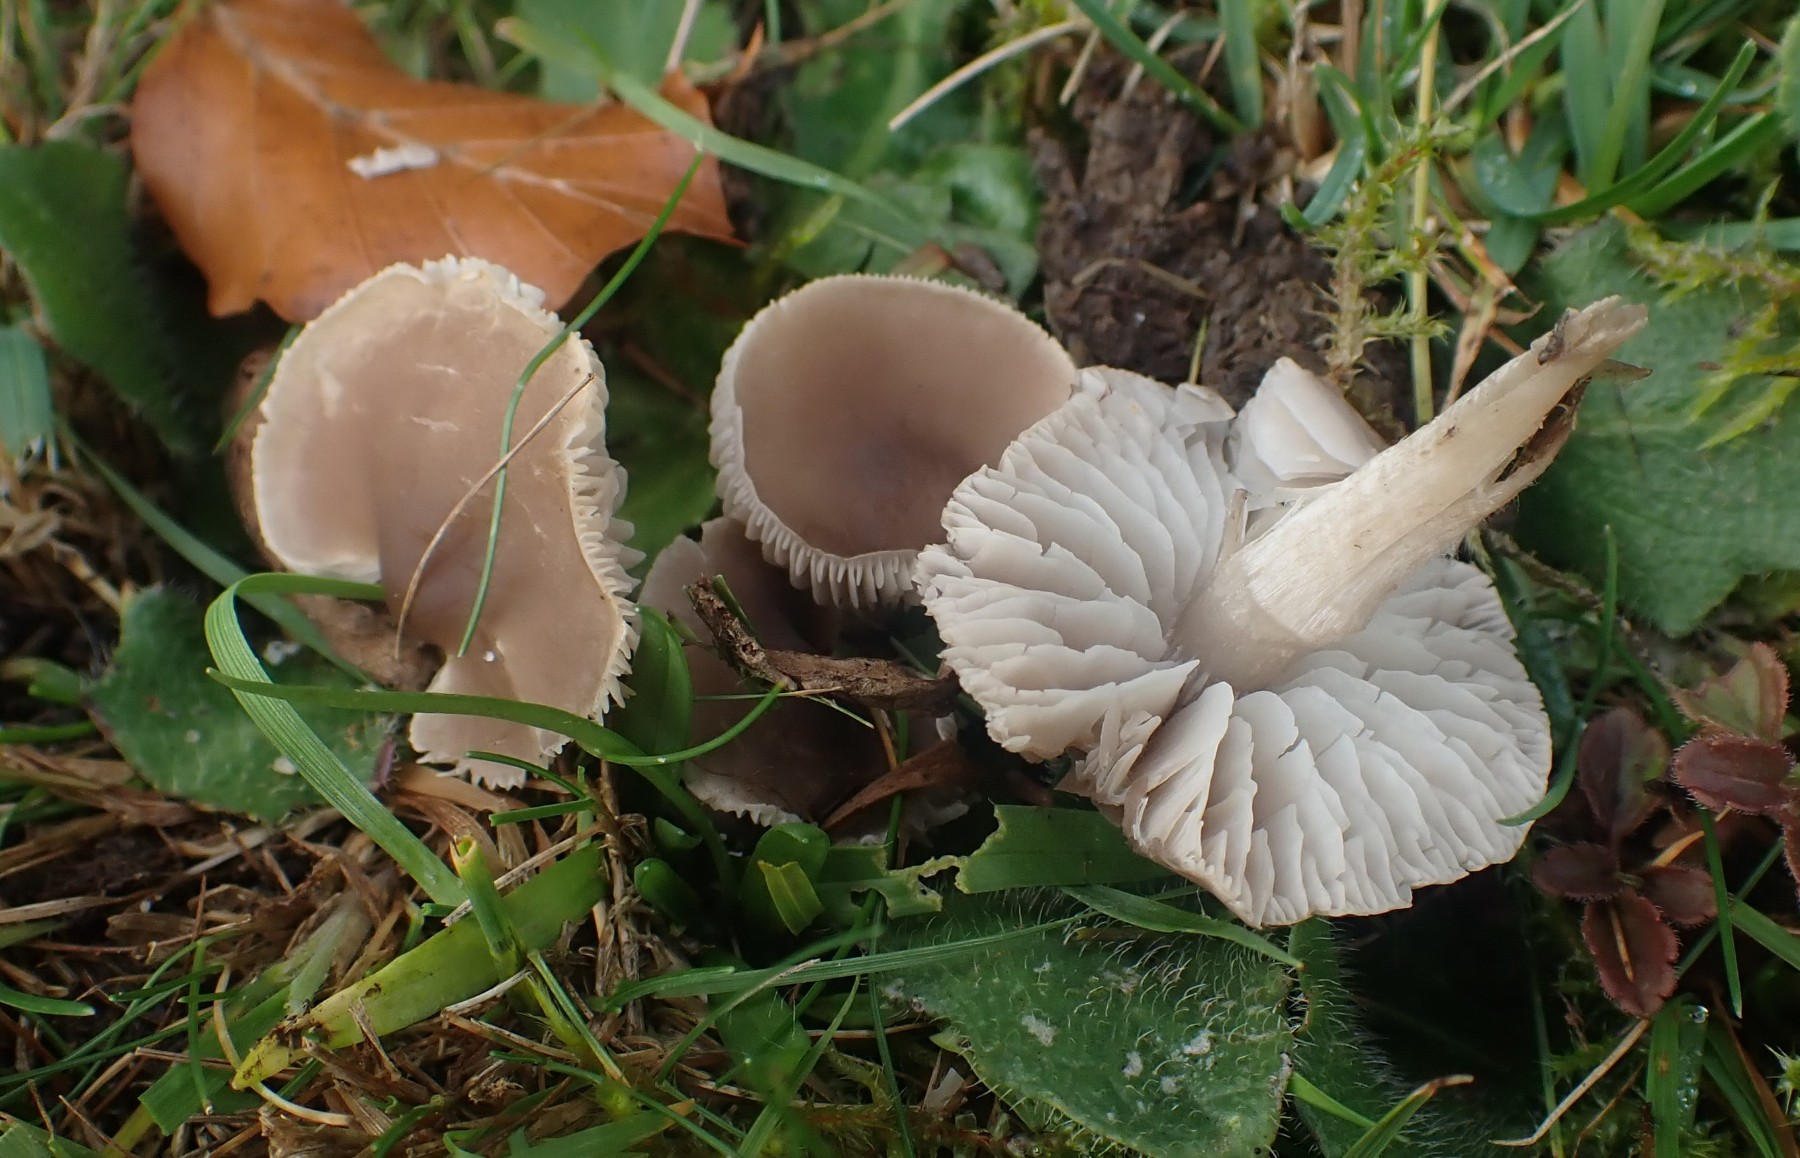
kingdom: Fungi
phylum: Basidiomycota
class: Agaricomycetes
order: Agaricales
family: Tricholomataceae
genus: Dermoloma
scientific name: Dermoloma cuneifolium
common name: eng-nonnehat
